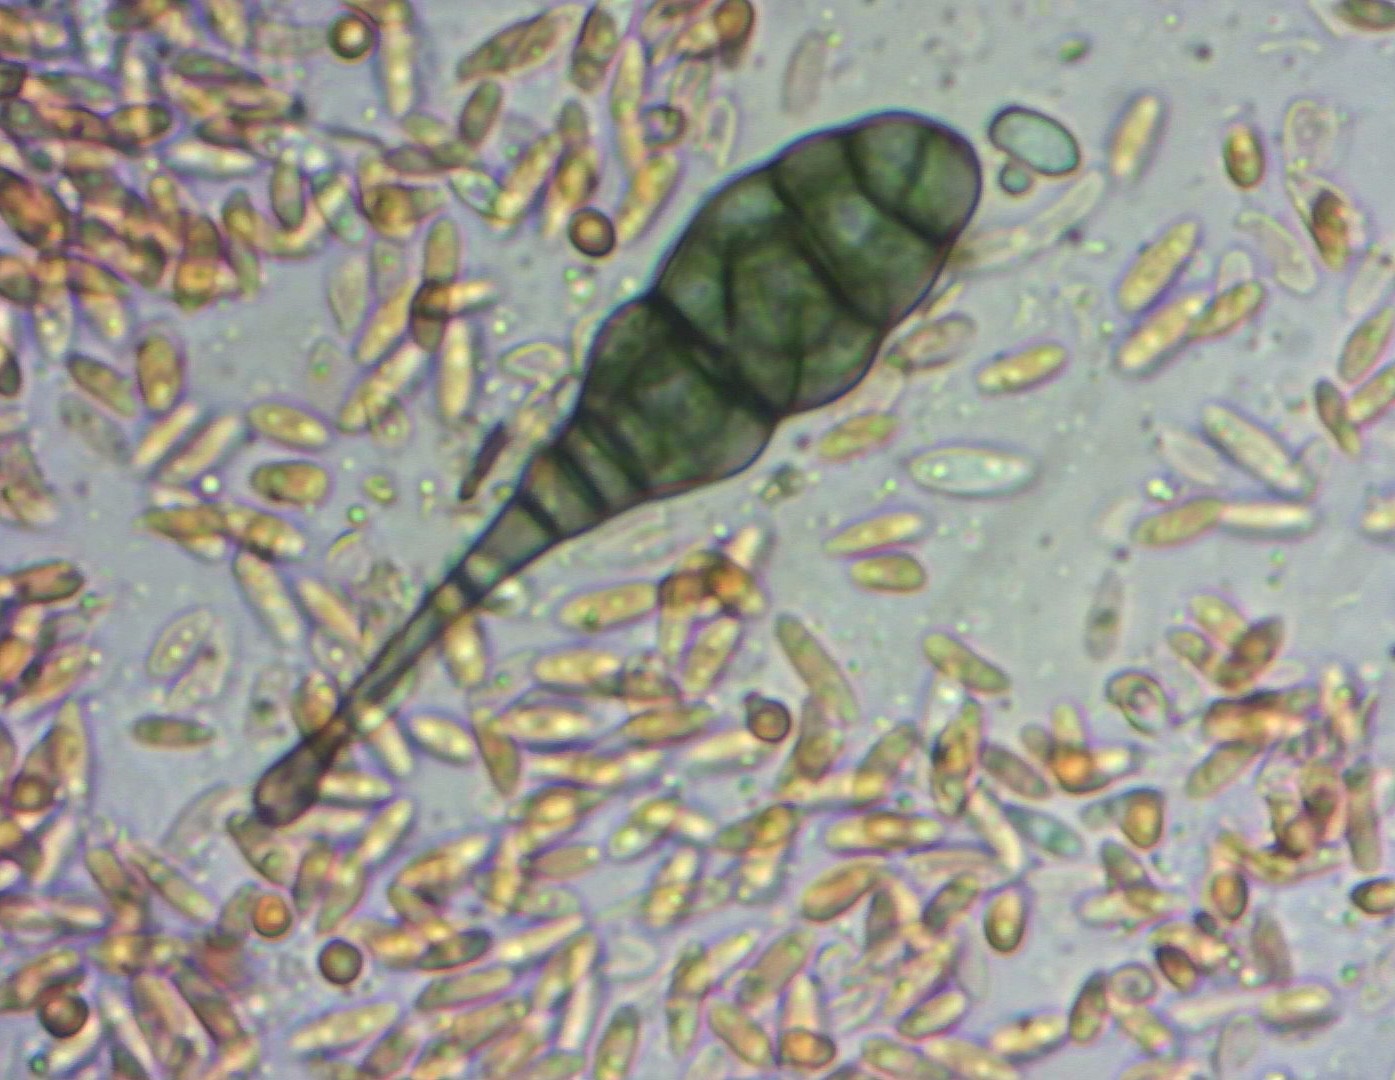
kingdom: Fungi
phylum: Ascomycota
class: Dothideomycetes
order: Pleosporales
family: Pleosporaceae
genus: Alternaria
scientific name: Alternaria
